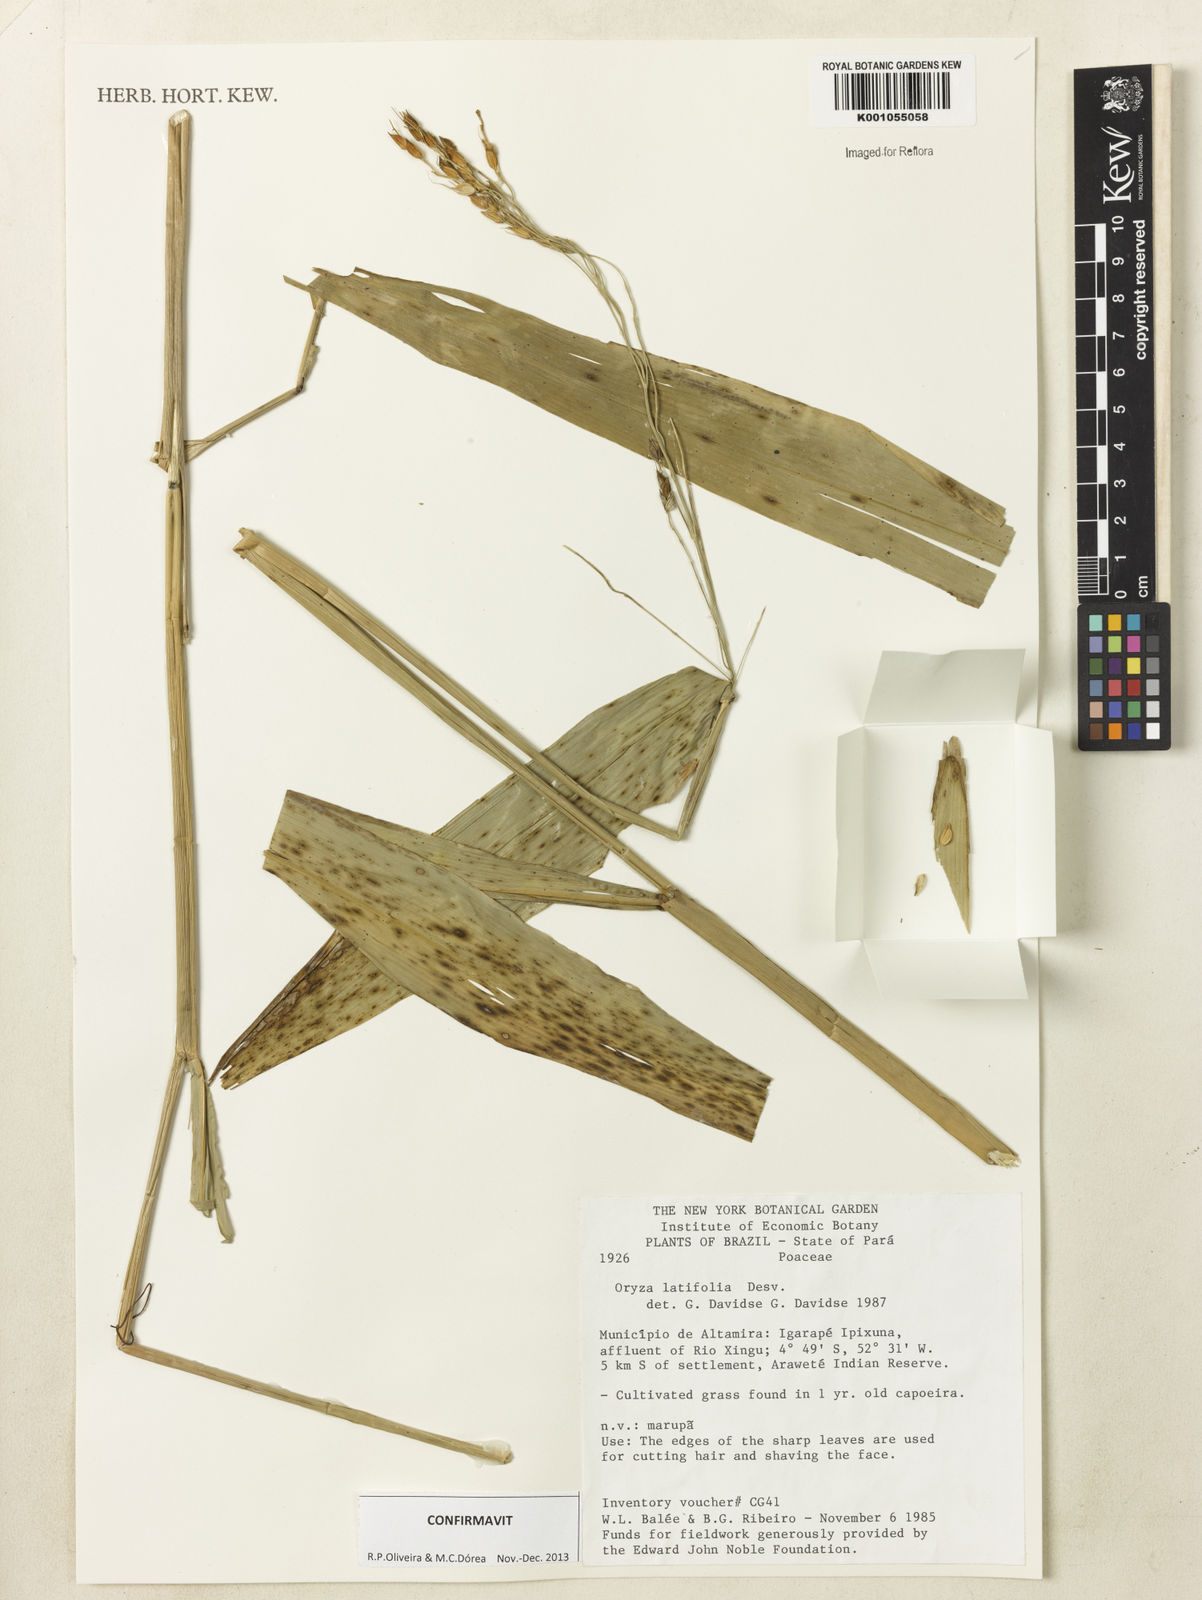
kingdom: Plantae
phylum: Tracheophyta
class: Liliopsida
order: Poales
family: Poaceae
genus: Oryza
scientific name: Oryza latifolia
